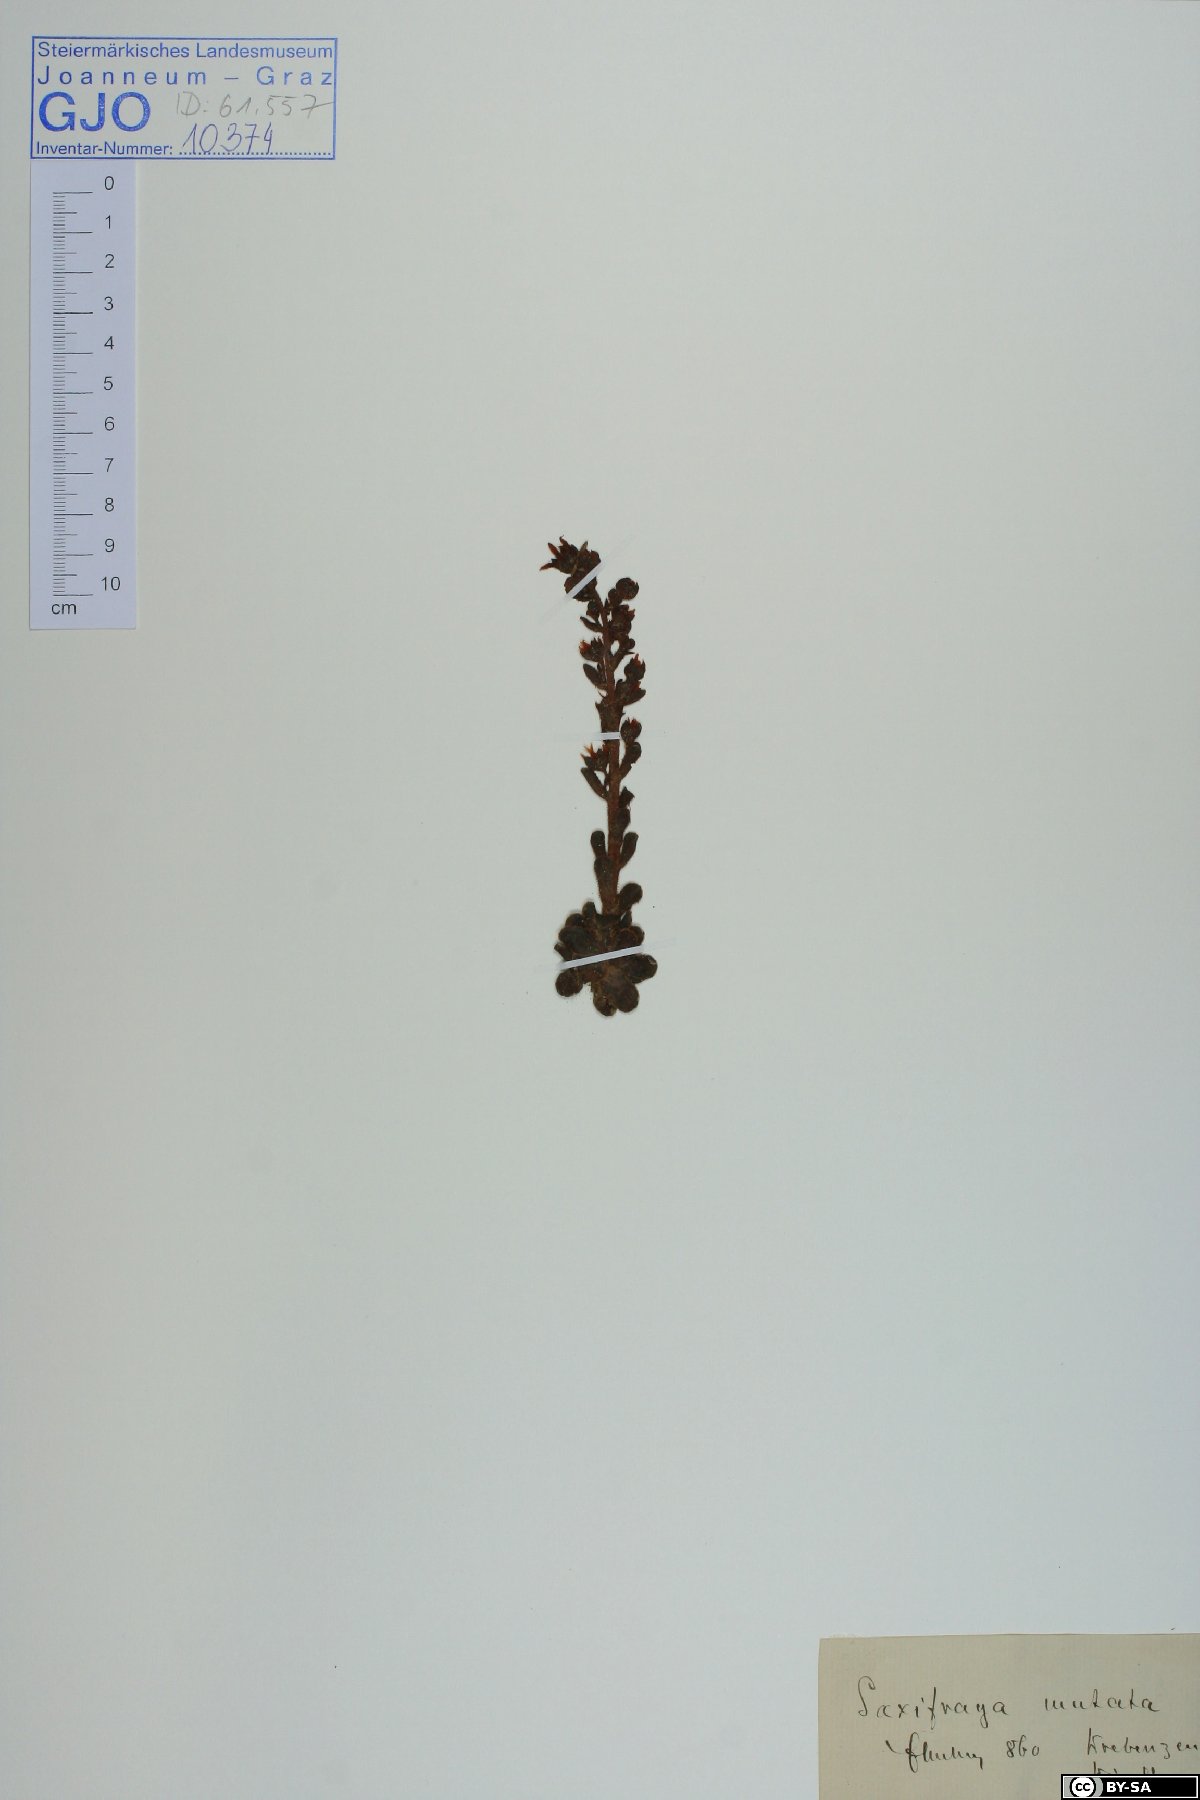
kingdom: Plantae
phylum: Tracheophyta
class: Magnoliopsida
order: Saxifragales
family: Saxifragaceae
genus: Saxifraga
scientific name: Saxifraga mutata
